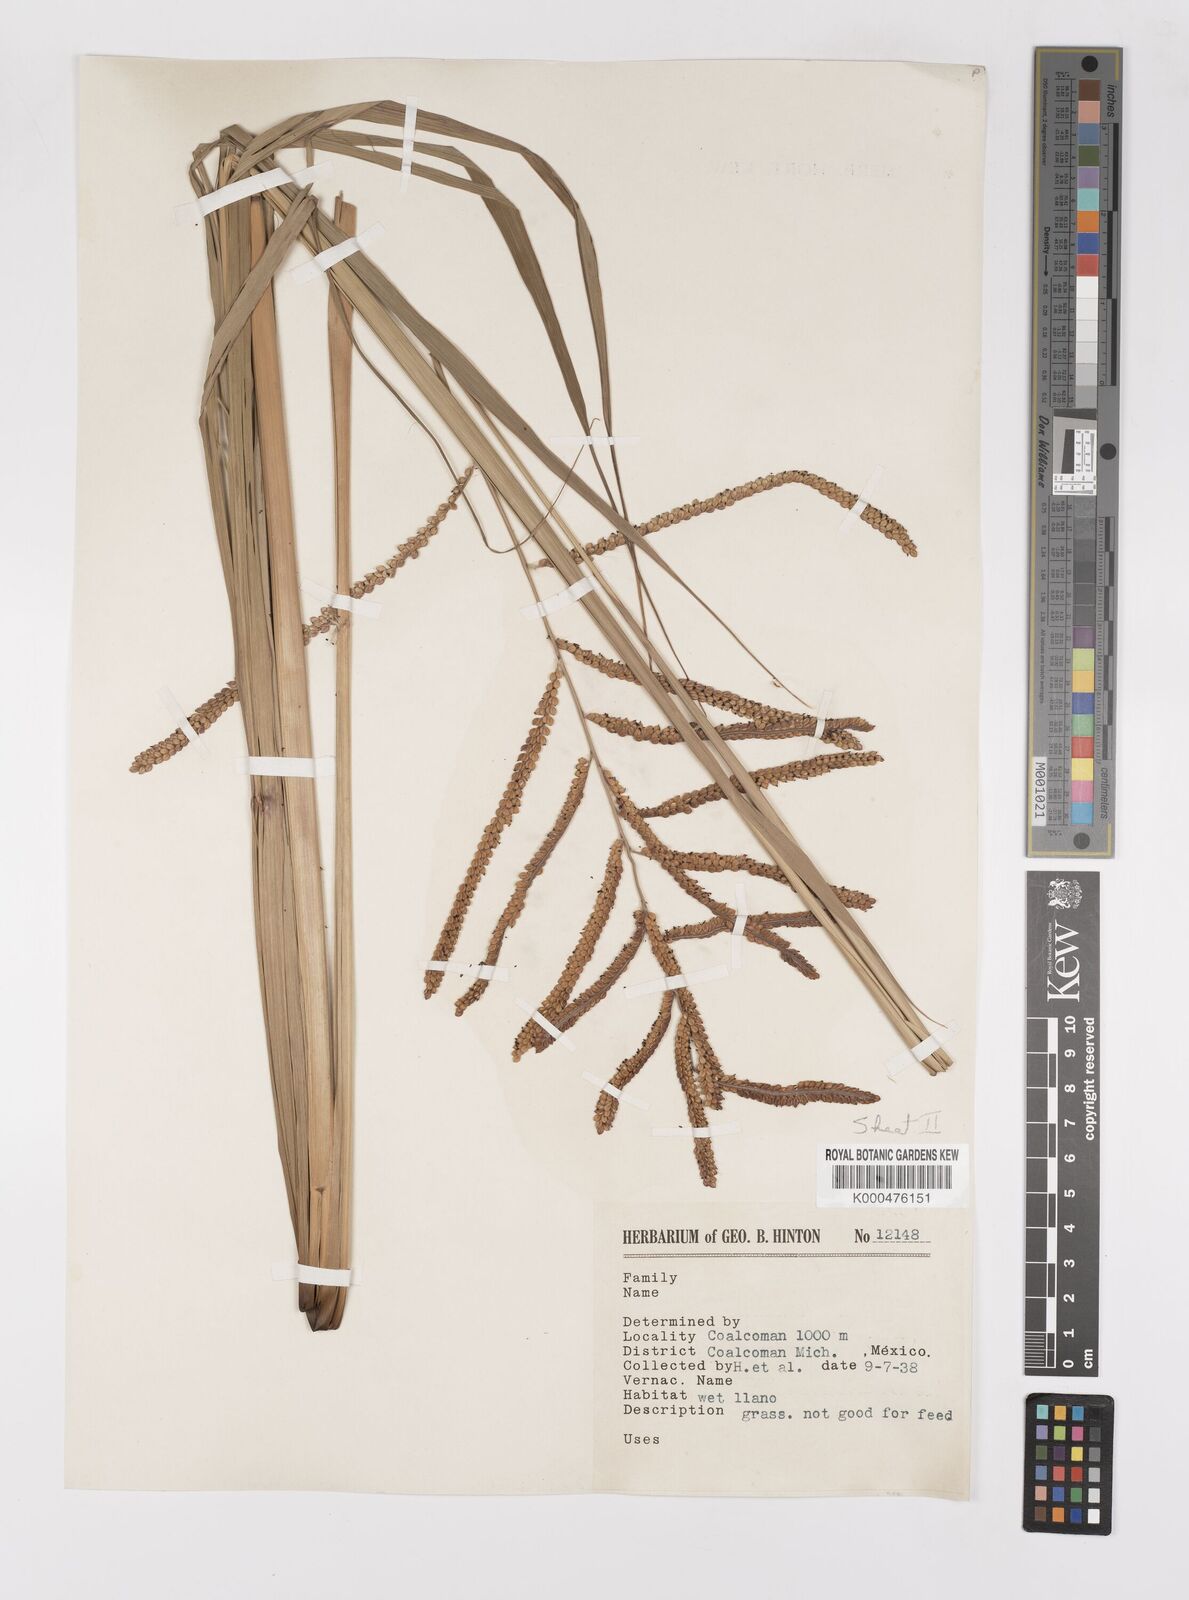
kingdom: Plantae
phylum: Tracheophyta
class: Liliopsida
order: Poales
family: Poaceae
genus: Paspalum
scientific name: Paspalum
